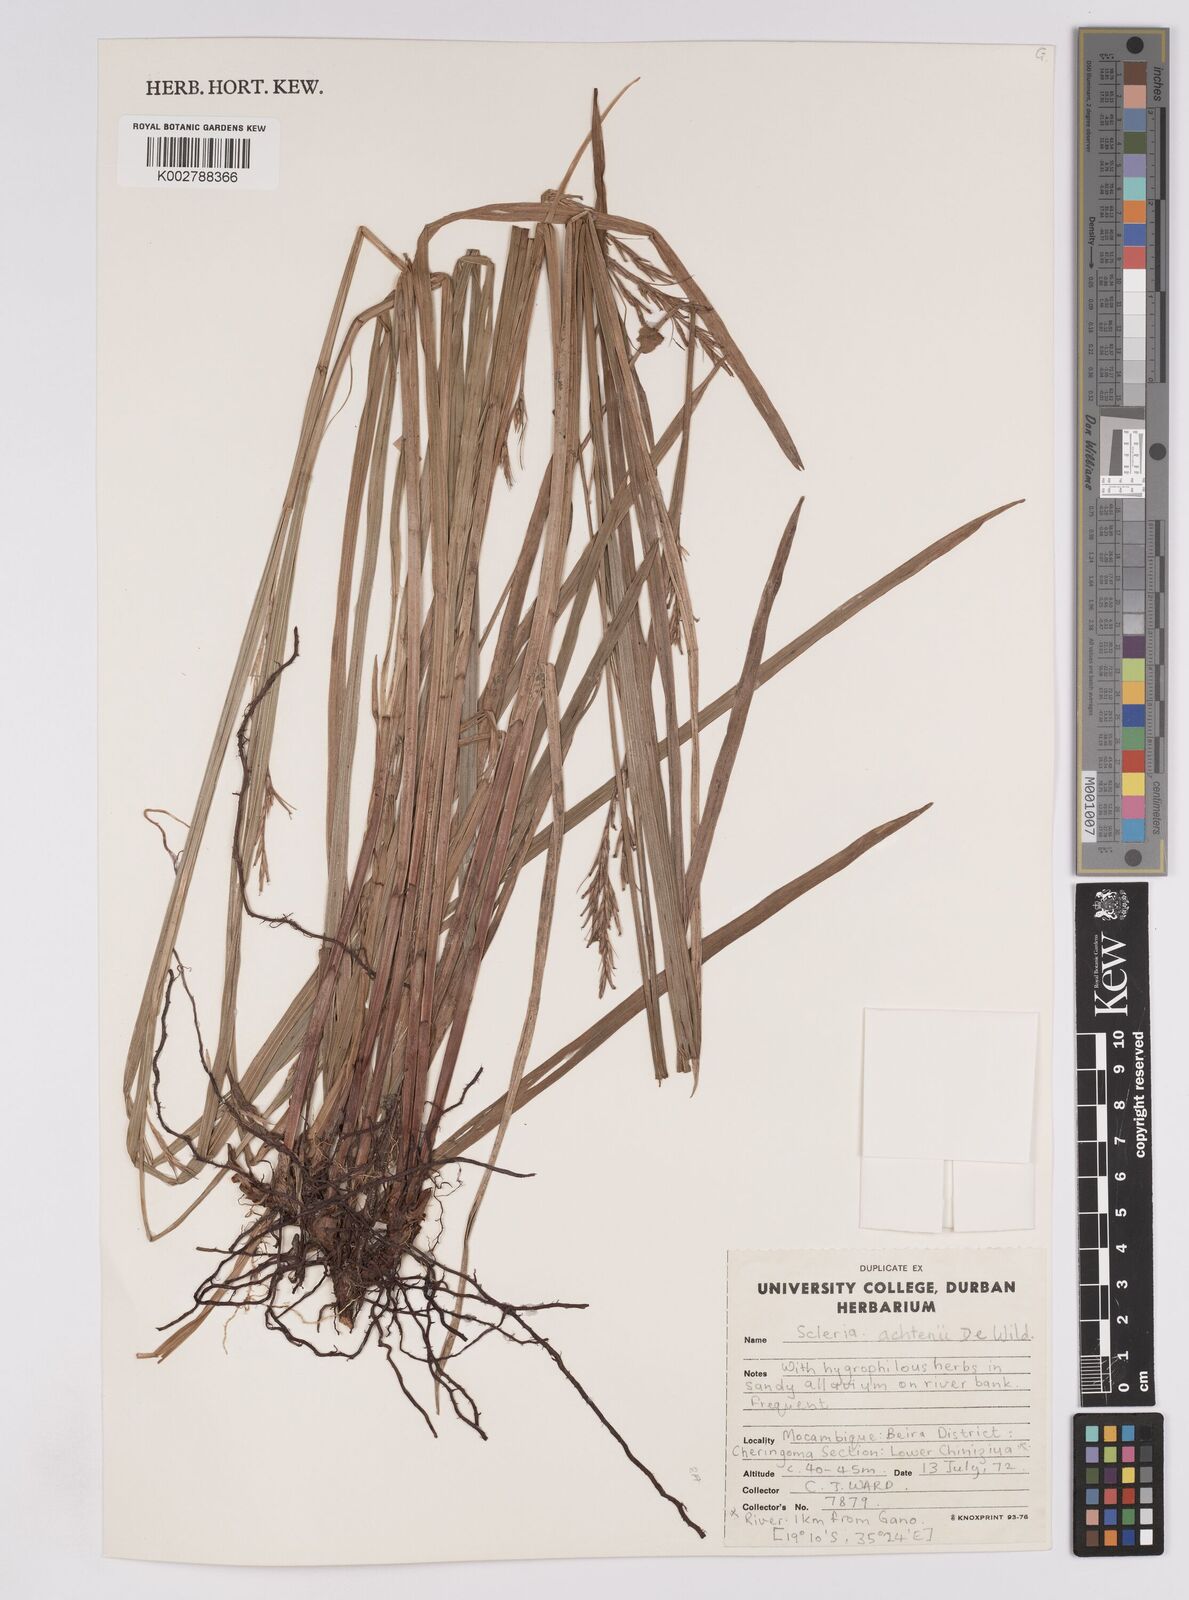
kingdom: Plantae
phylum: Tracheophyta
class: Liliopsida
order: Poales
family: Cyperaceae
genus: Scleria
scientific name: Scleria achtenii
